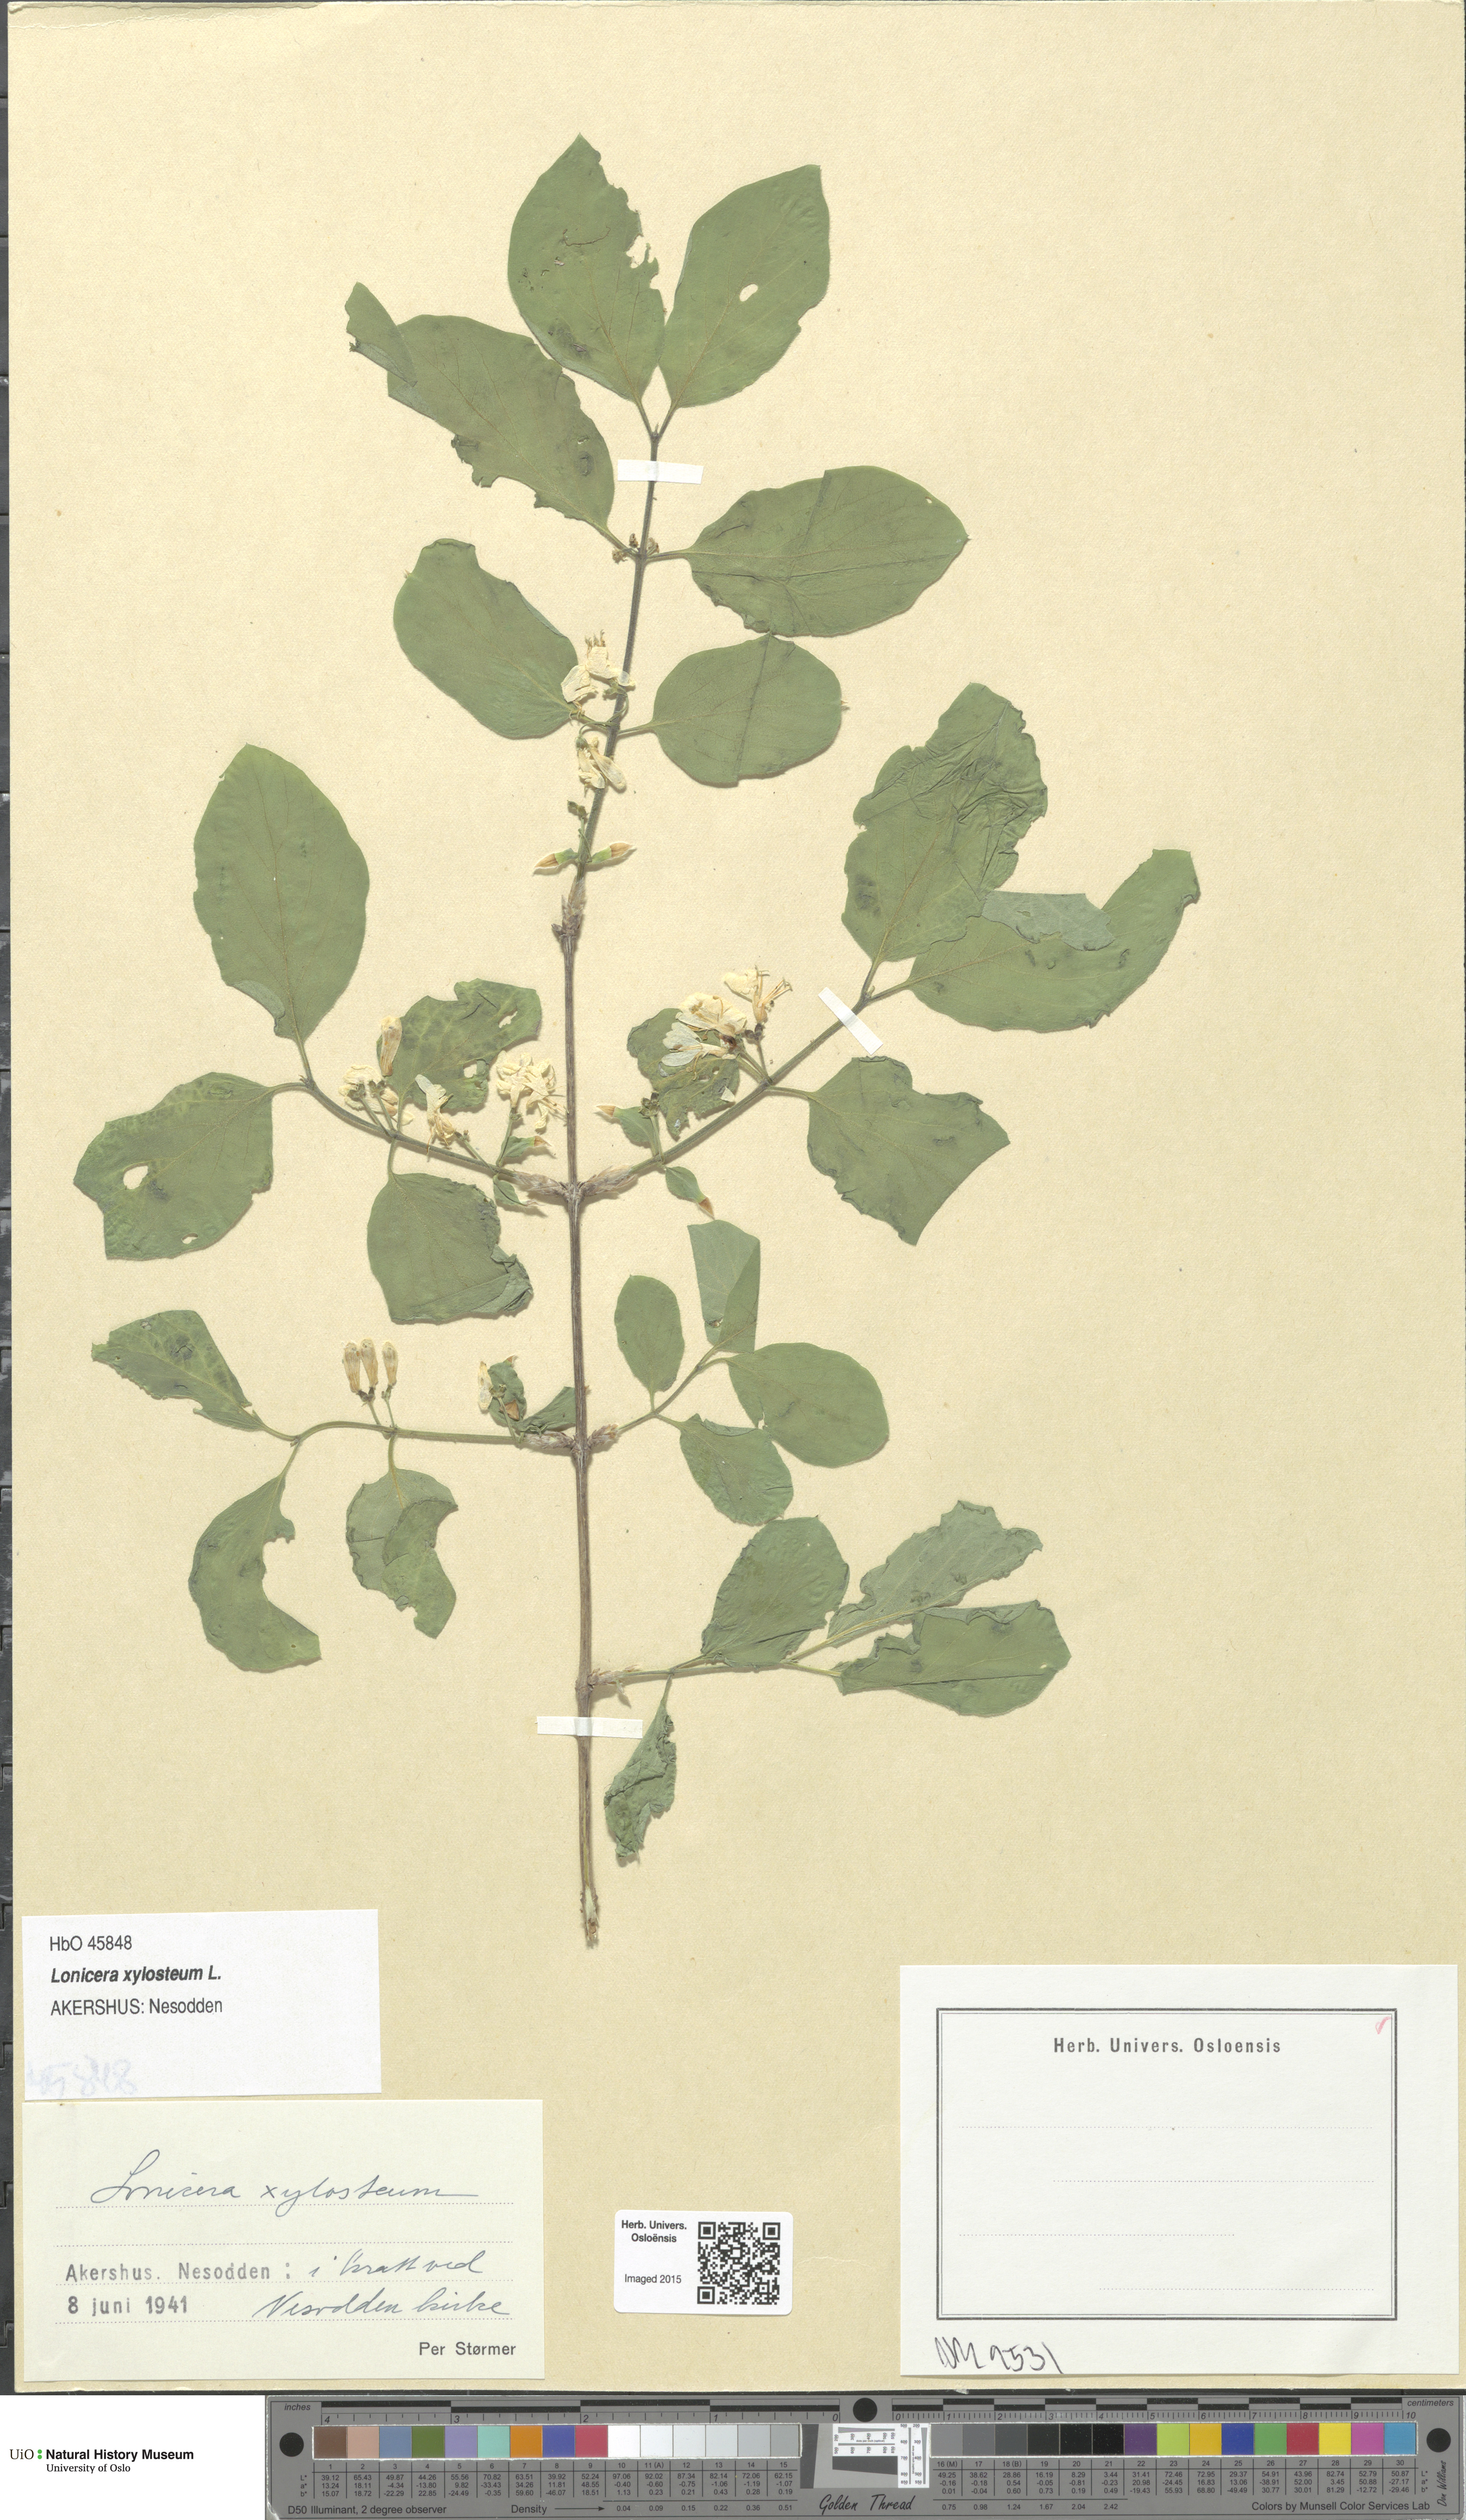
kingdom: Plantae
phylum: Tracheophyta
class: Magnoliopsida
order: Dipsacales
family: Caprifoliaceae
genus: Lonicera
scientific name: Lonicera xylosteum
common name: Fly honeysuckle
